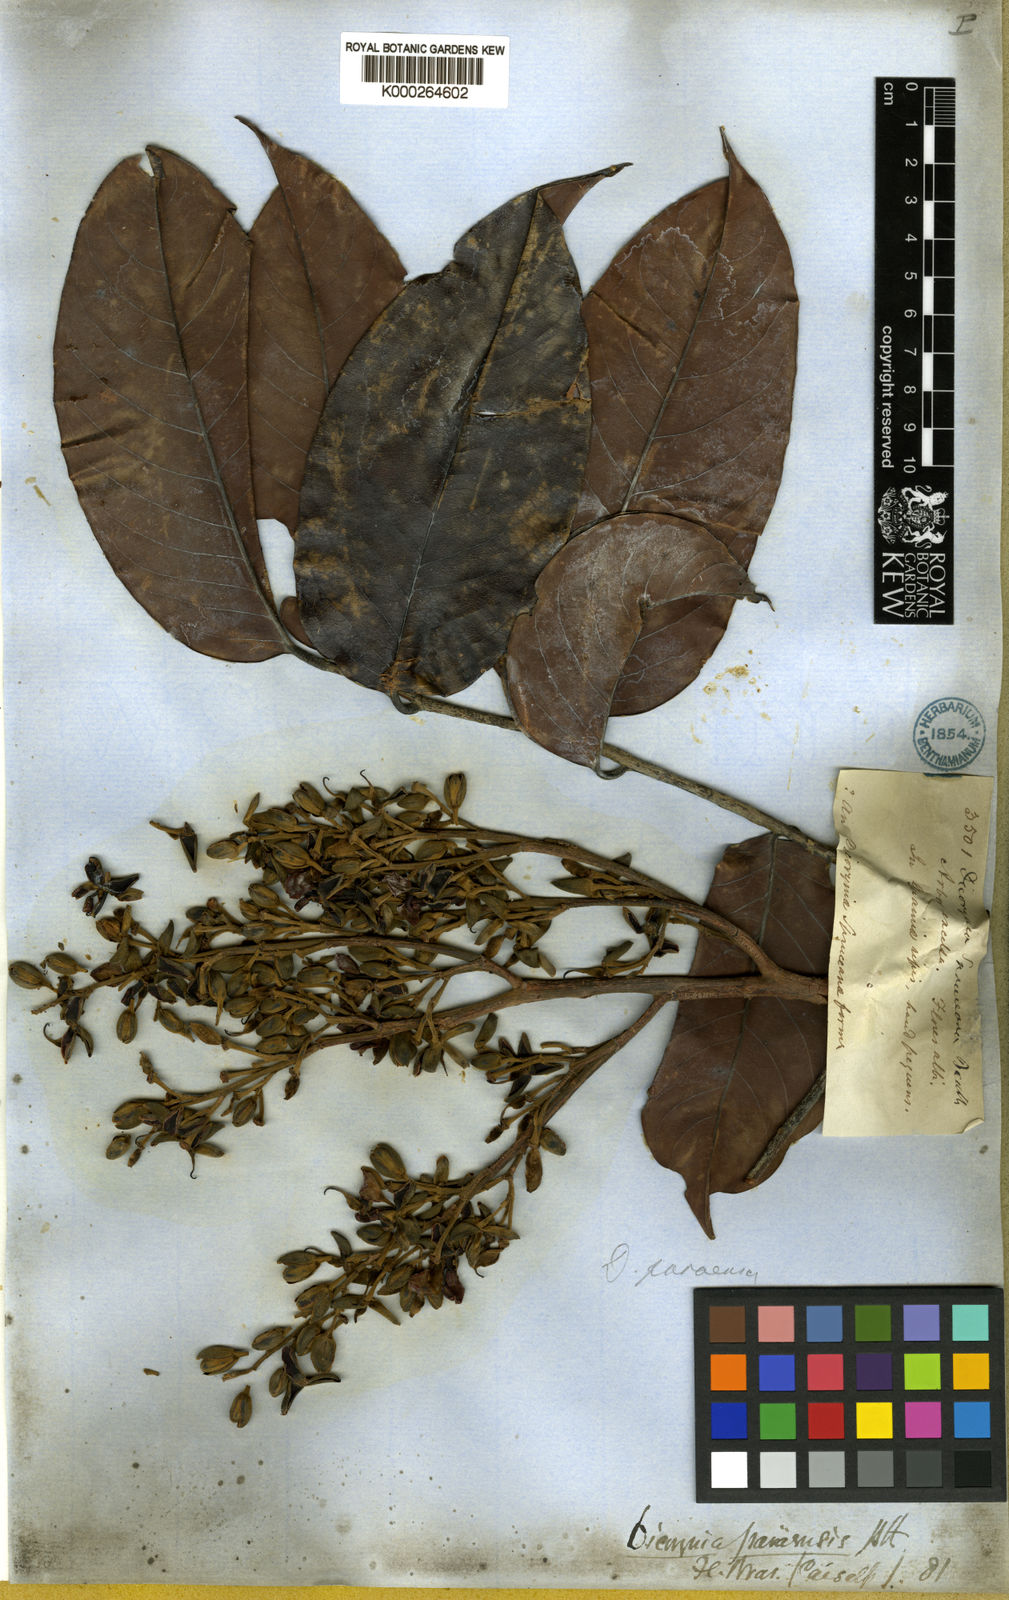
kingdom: Plantae
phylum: Tracheophyta
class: Magnoliopsida
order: Fabales
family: Fabaceae
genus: Dicorynia
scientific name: Dicorynia paraensis
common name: Angelique
